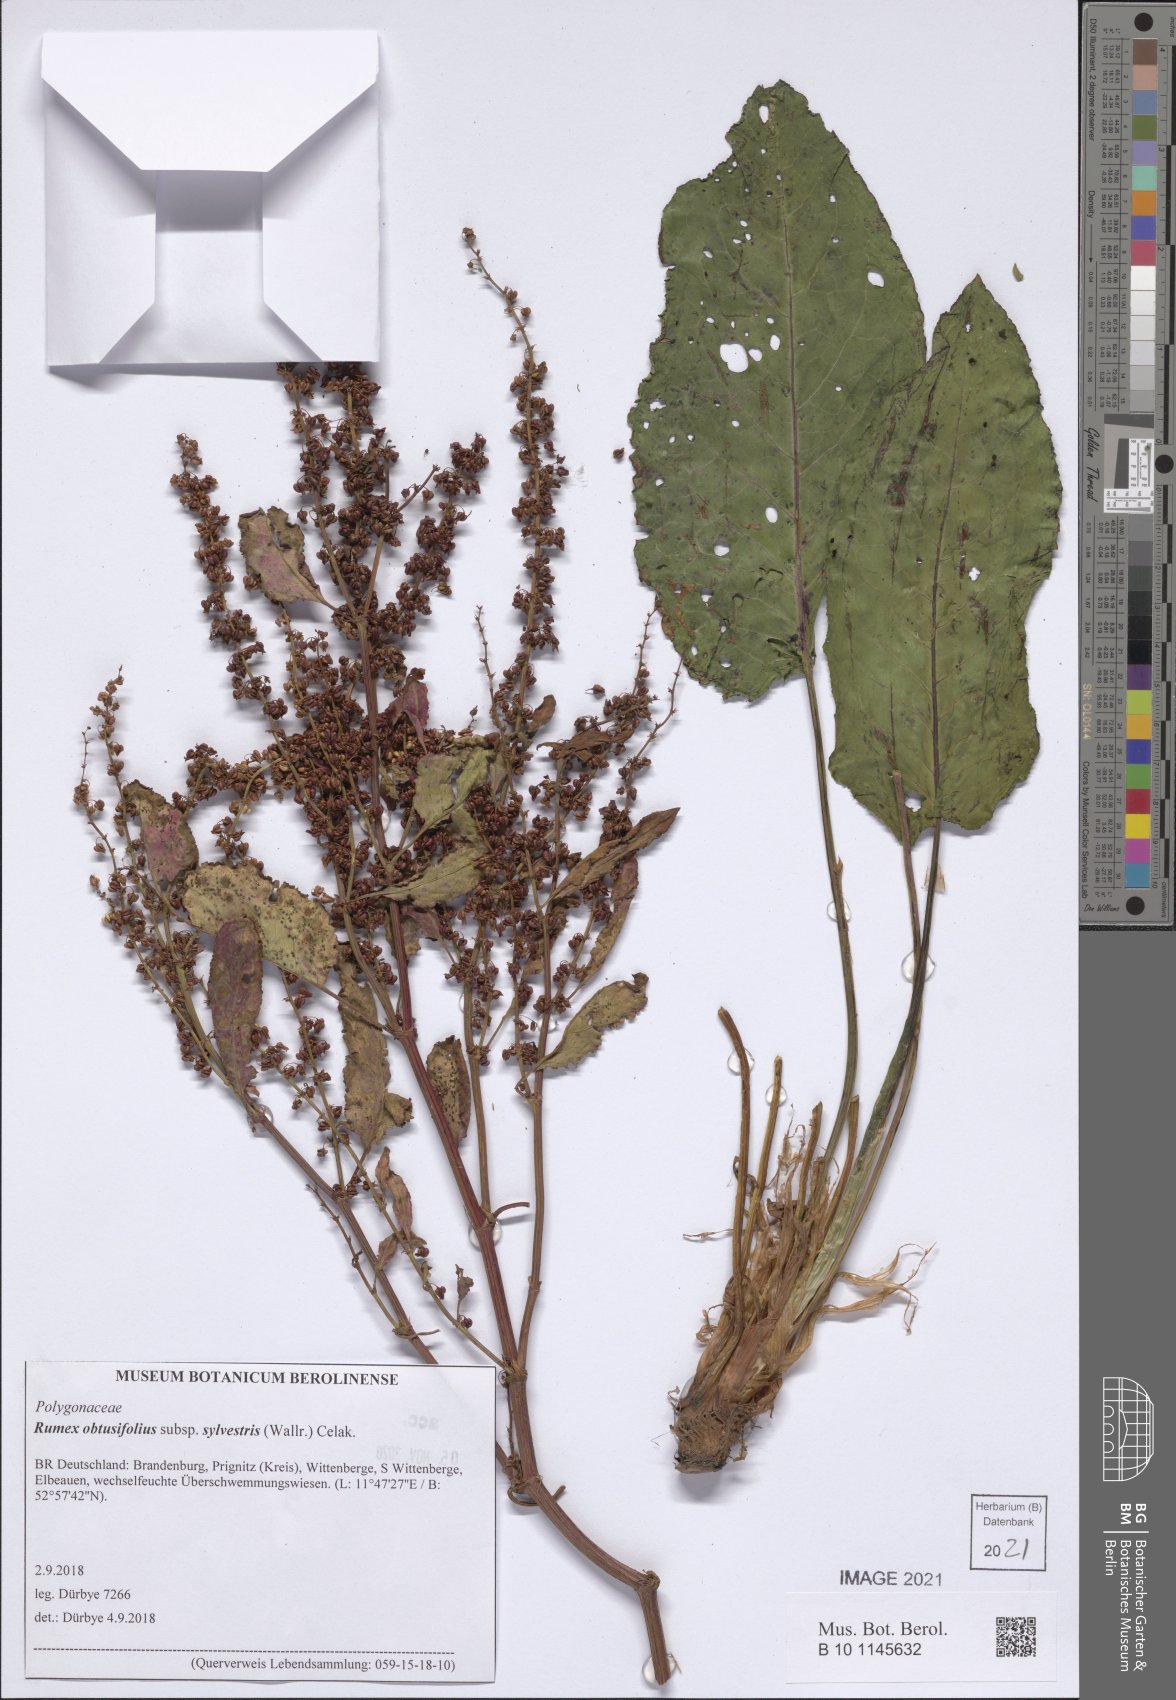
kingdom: Plantae
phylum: Tracheophyta
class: Magnoliopsida
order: Caryophyllales
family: Polygonaceae
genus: Rumex
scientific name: Rumex obtusifolius
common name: Bitter dock
